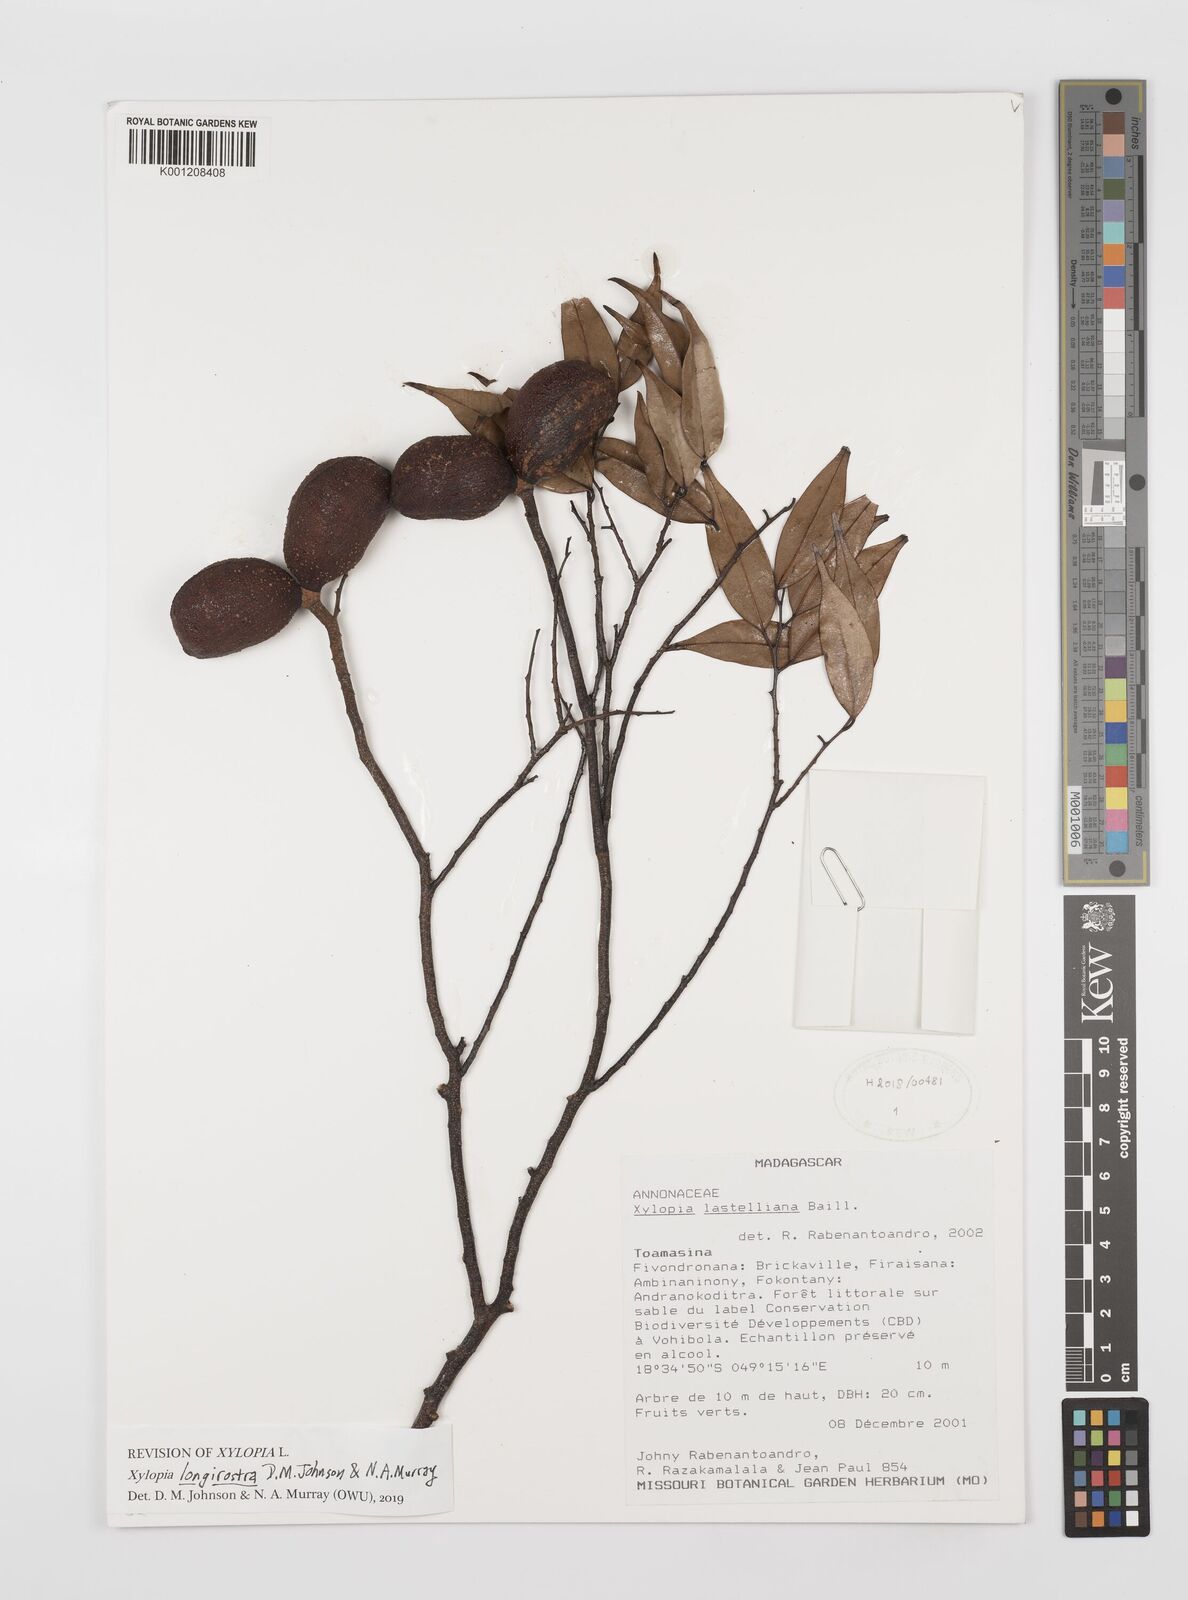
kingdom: Plantae
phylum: Tracheophyta
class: Magnoliopsida
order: Magnoliales
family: Annonaceae
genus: Xylopia
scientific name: Xylopia lastelliana
